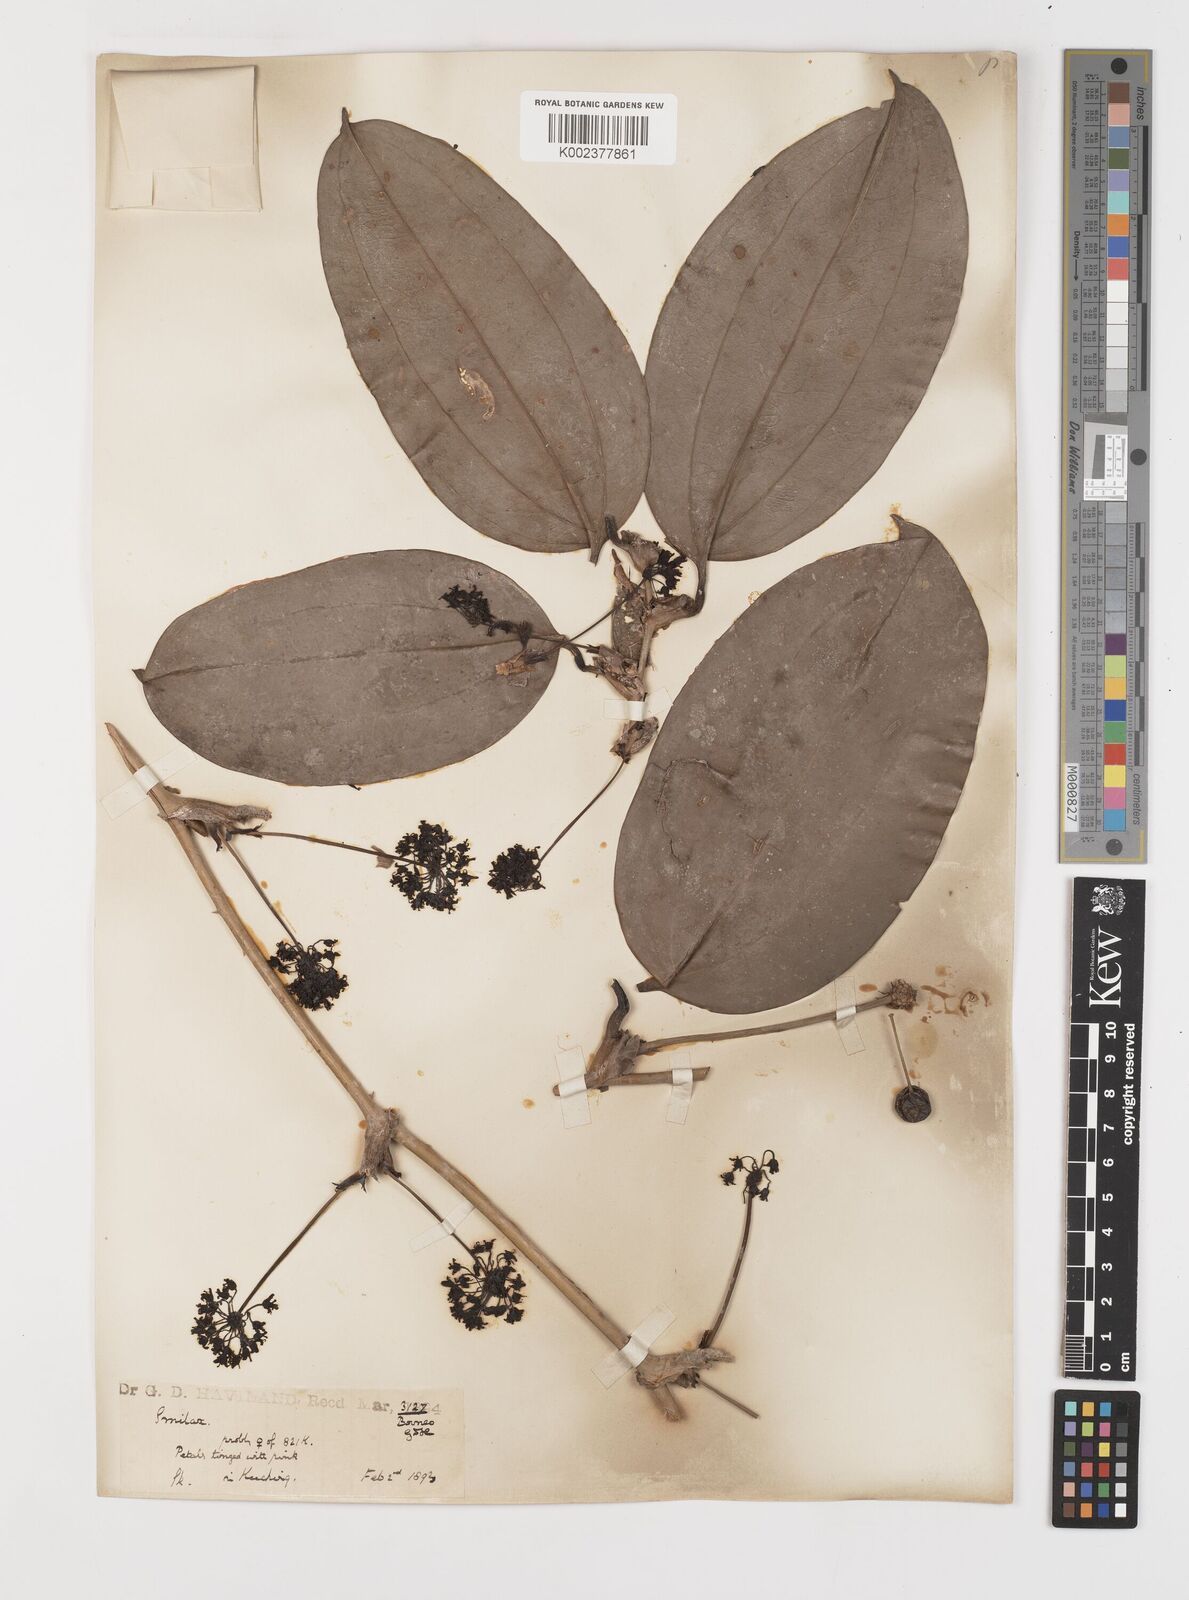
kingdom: Plantae
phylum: Tracheophyta
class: Liliopsida
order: Liliales
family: Smilacaceae
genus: Smilax
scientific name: Smilax
